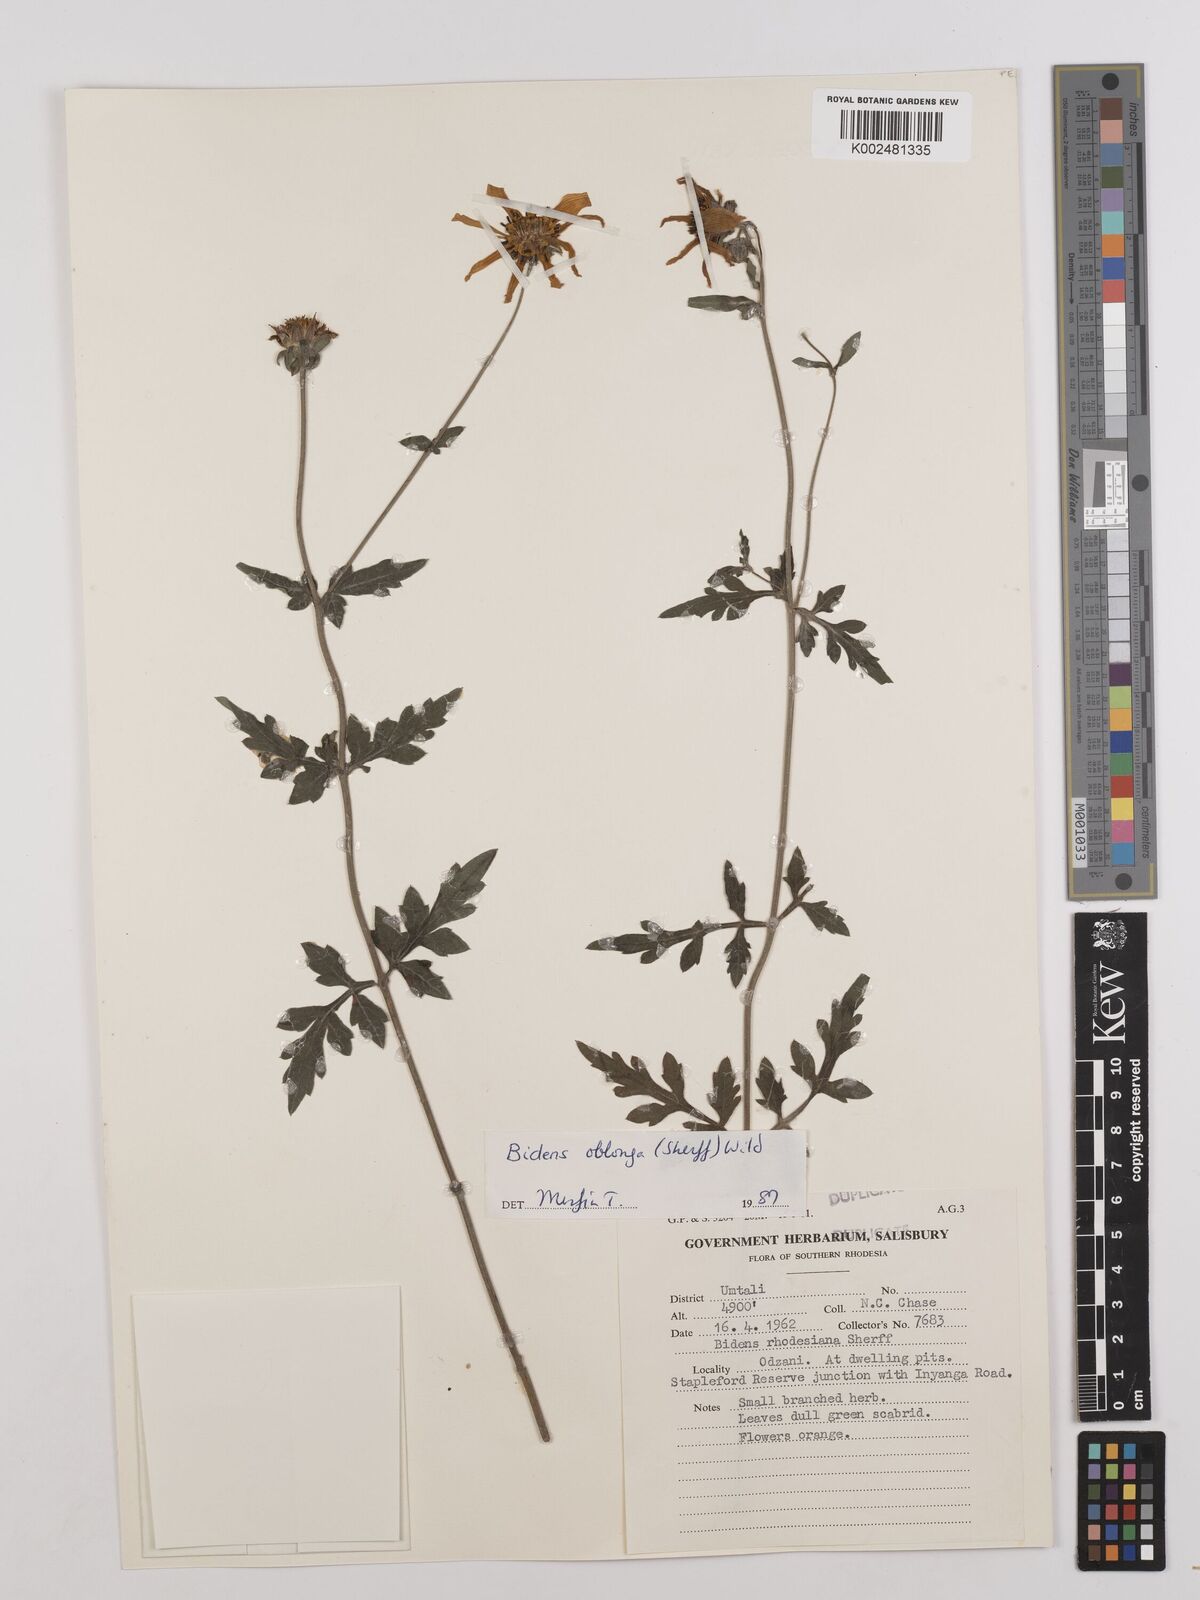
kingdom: Plantae
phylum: Tracheophyta
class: Magnoliopsida
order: Asterales
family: Asteraceae
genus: Bidens
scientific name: Bidens oblonga
